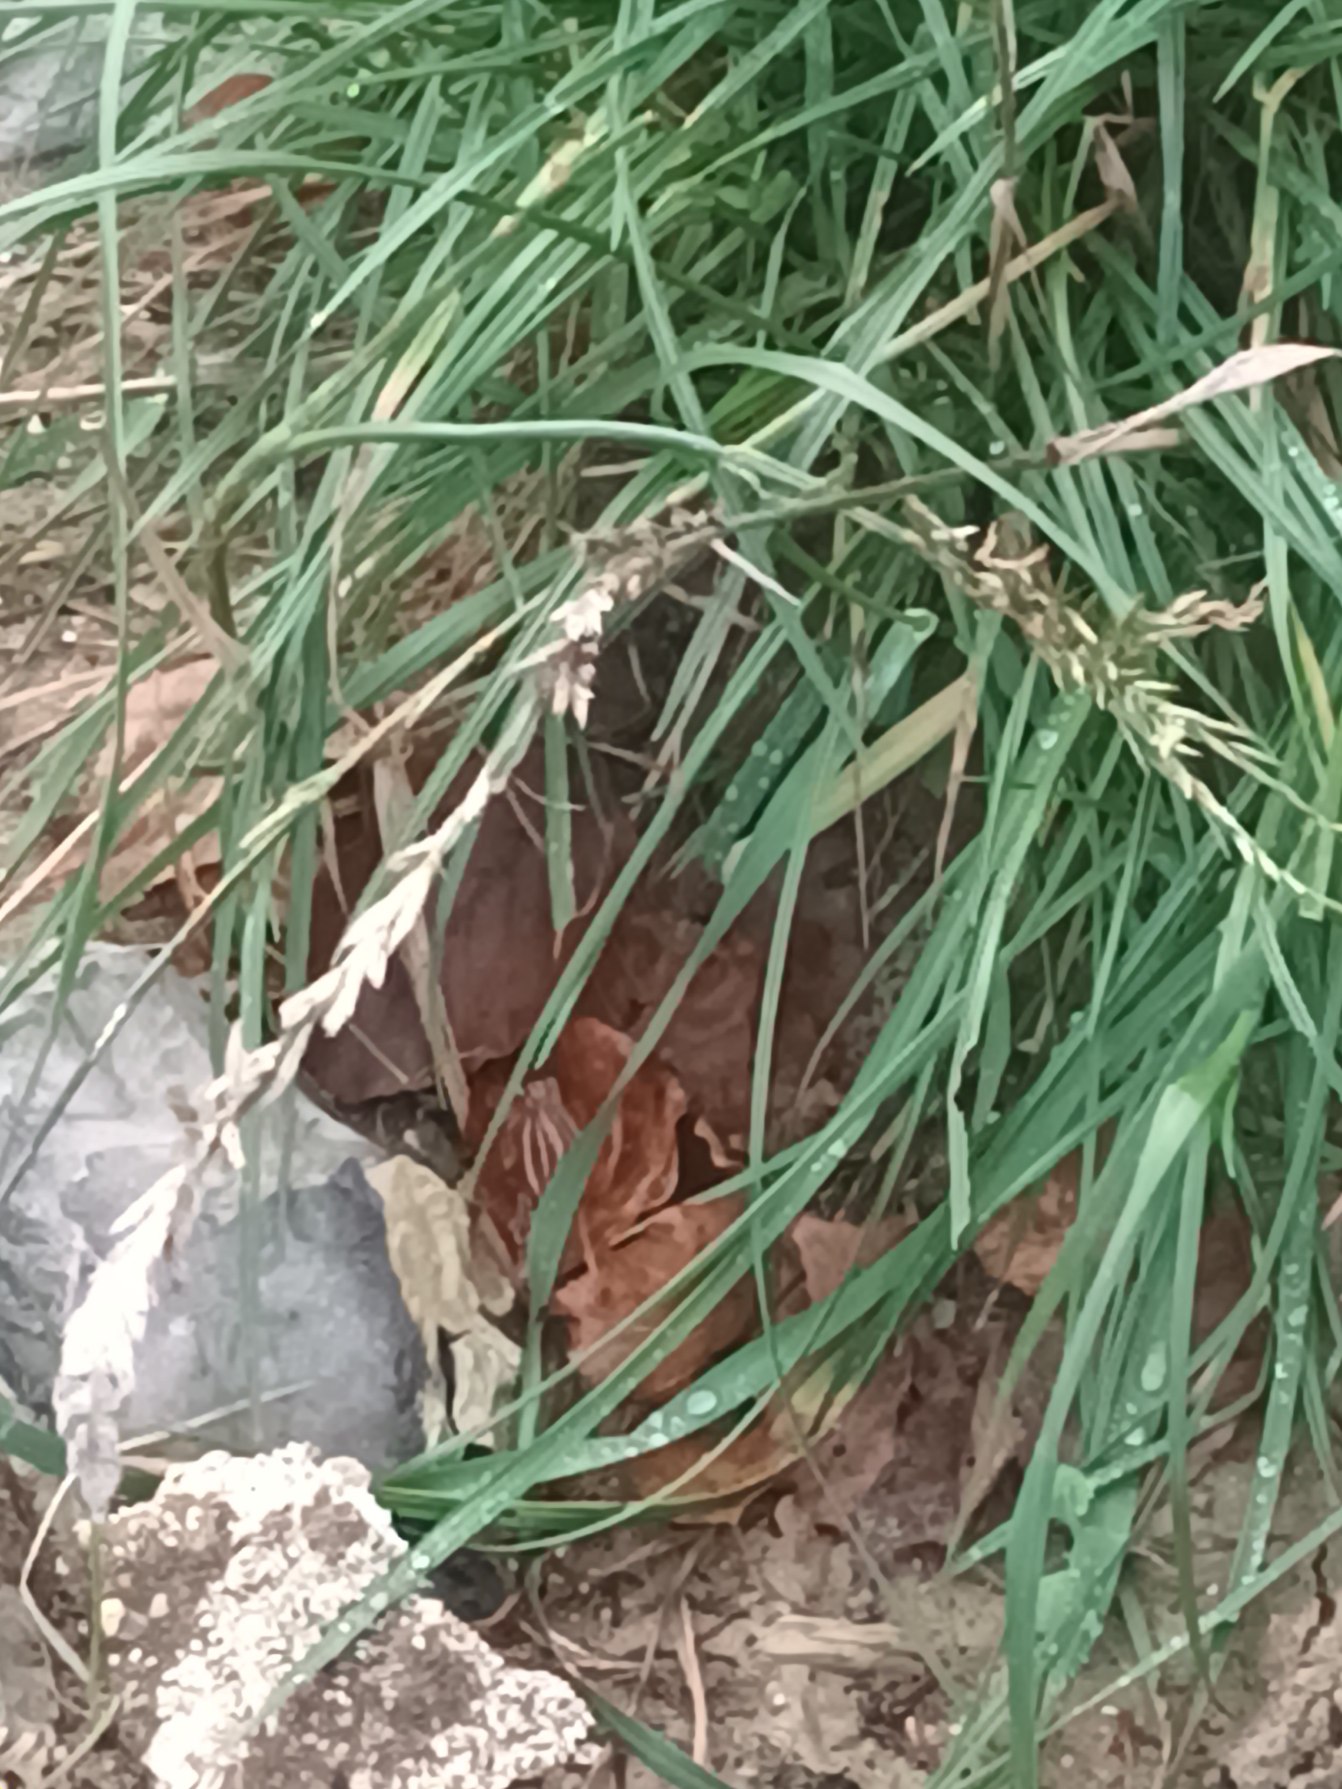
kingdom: Plantae
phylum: Tracheophyta
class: Liliopsida
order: Poales
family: Poaceae
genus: Lolium
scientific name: Lolium perenne
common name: Almindelig rajgræs
